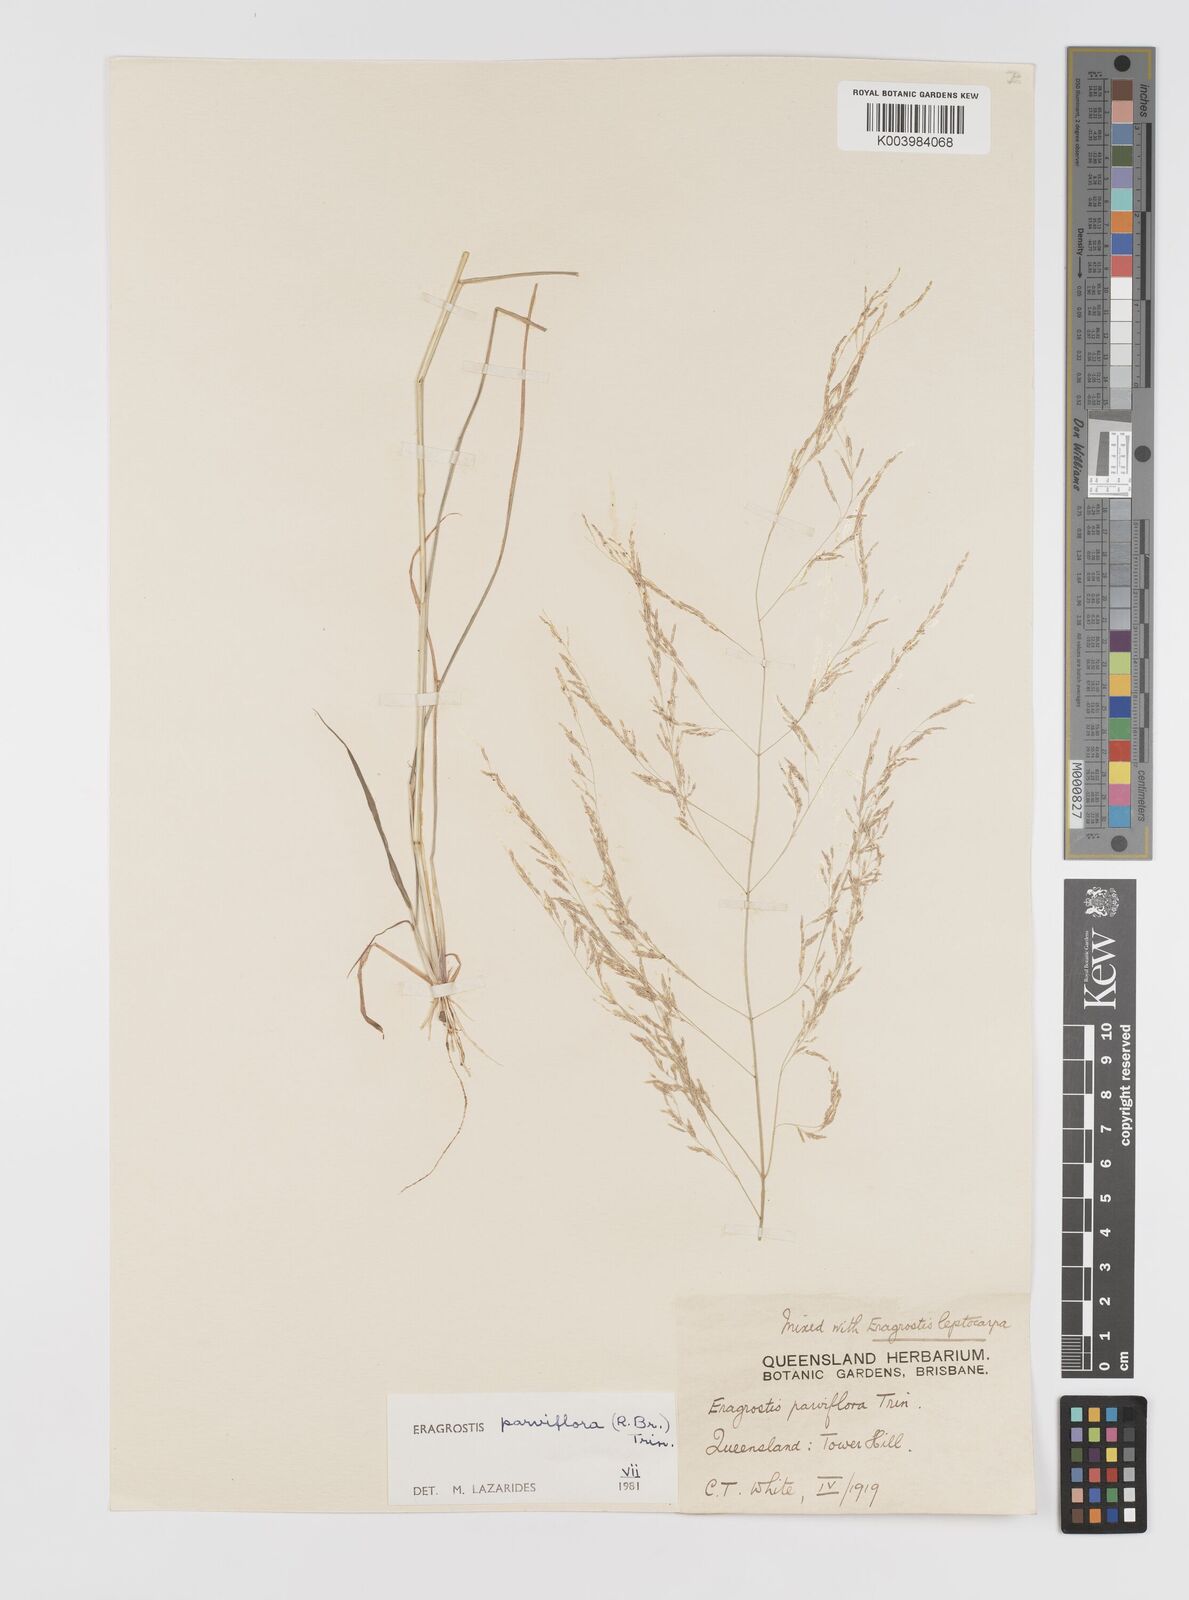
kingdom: Plantae
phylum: Tracheophyta
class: Liliopsida
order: Poales
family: Poaceae
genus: Eragrostis
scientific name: Eragrostis parviflora
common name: Weeping love-grass
